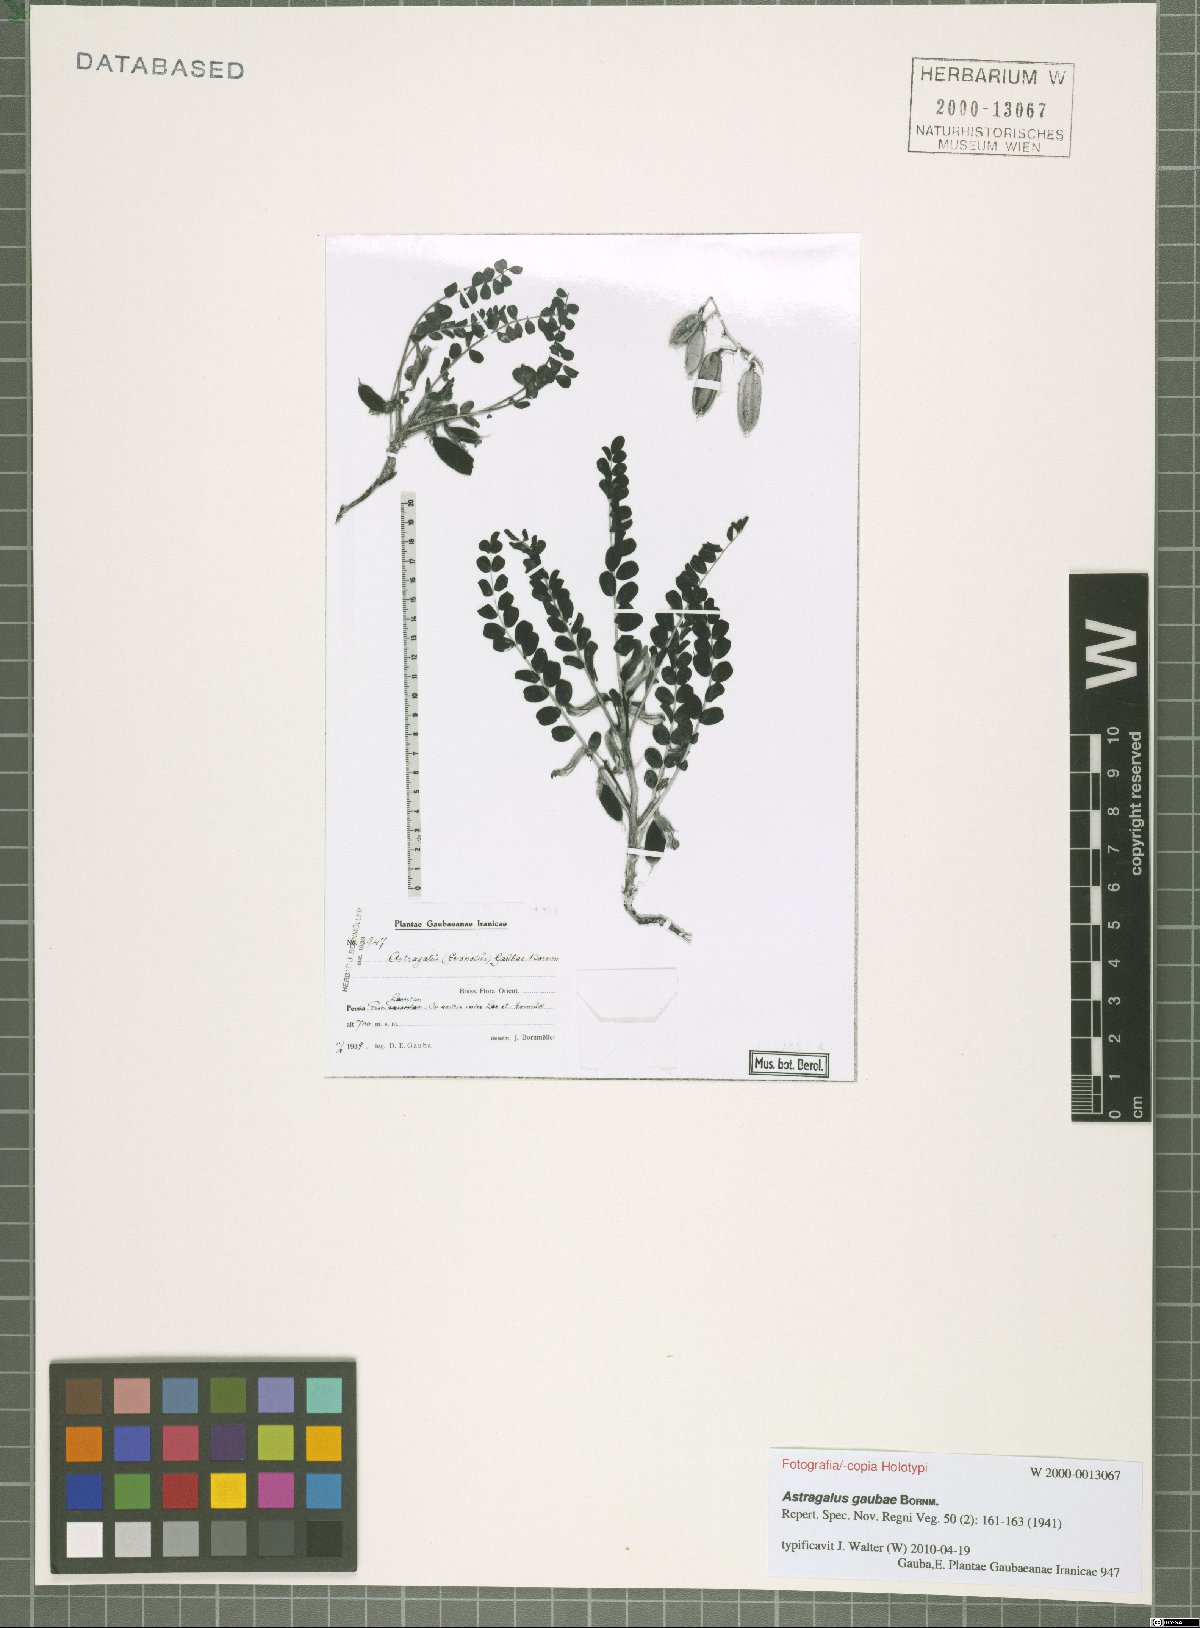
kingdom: Plantae
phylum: Tracheophyta
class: Magnoliopsida
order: Fabales
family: Fabaceae
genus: Astragalus
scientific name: Astragalus gaubae
